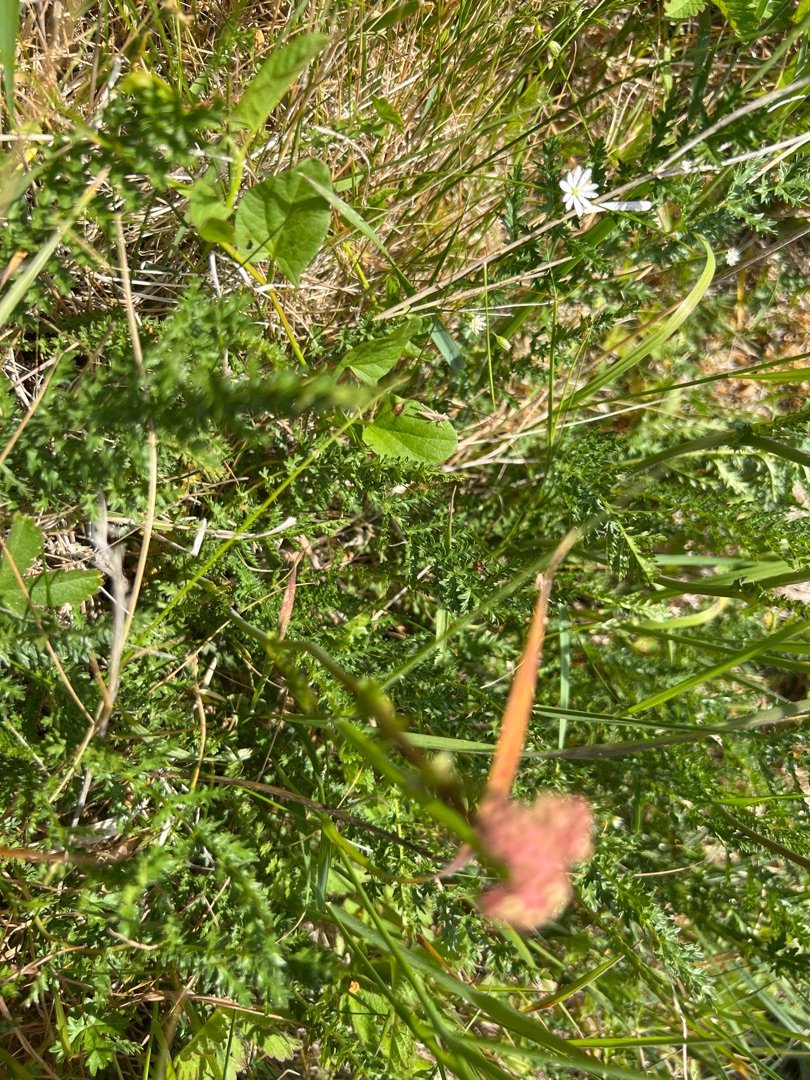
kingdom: Plantae
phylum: Tracheophyta
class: Magnoliopsida
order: Rosales
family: Rosaceae
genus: Filipendula
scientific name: Filipendula vulgaris
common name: Knoldet mjødurt
